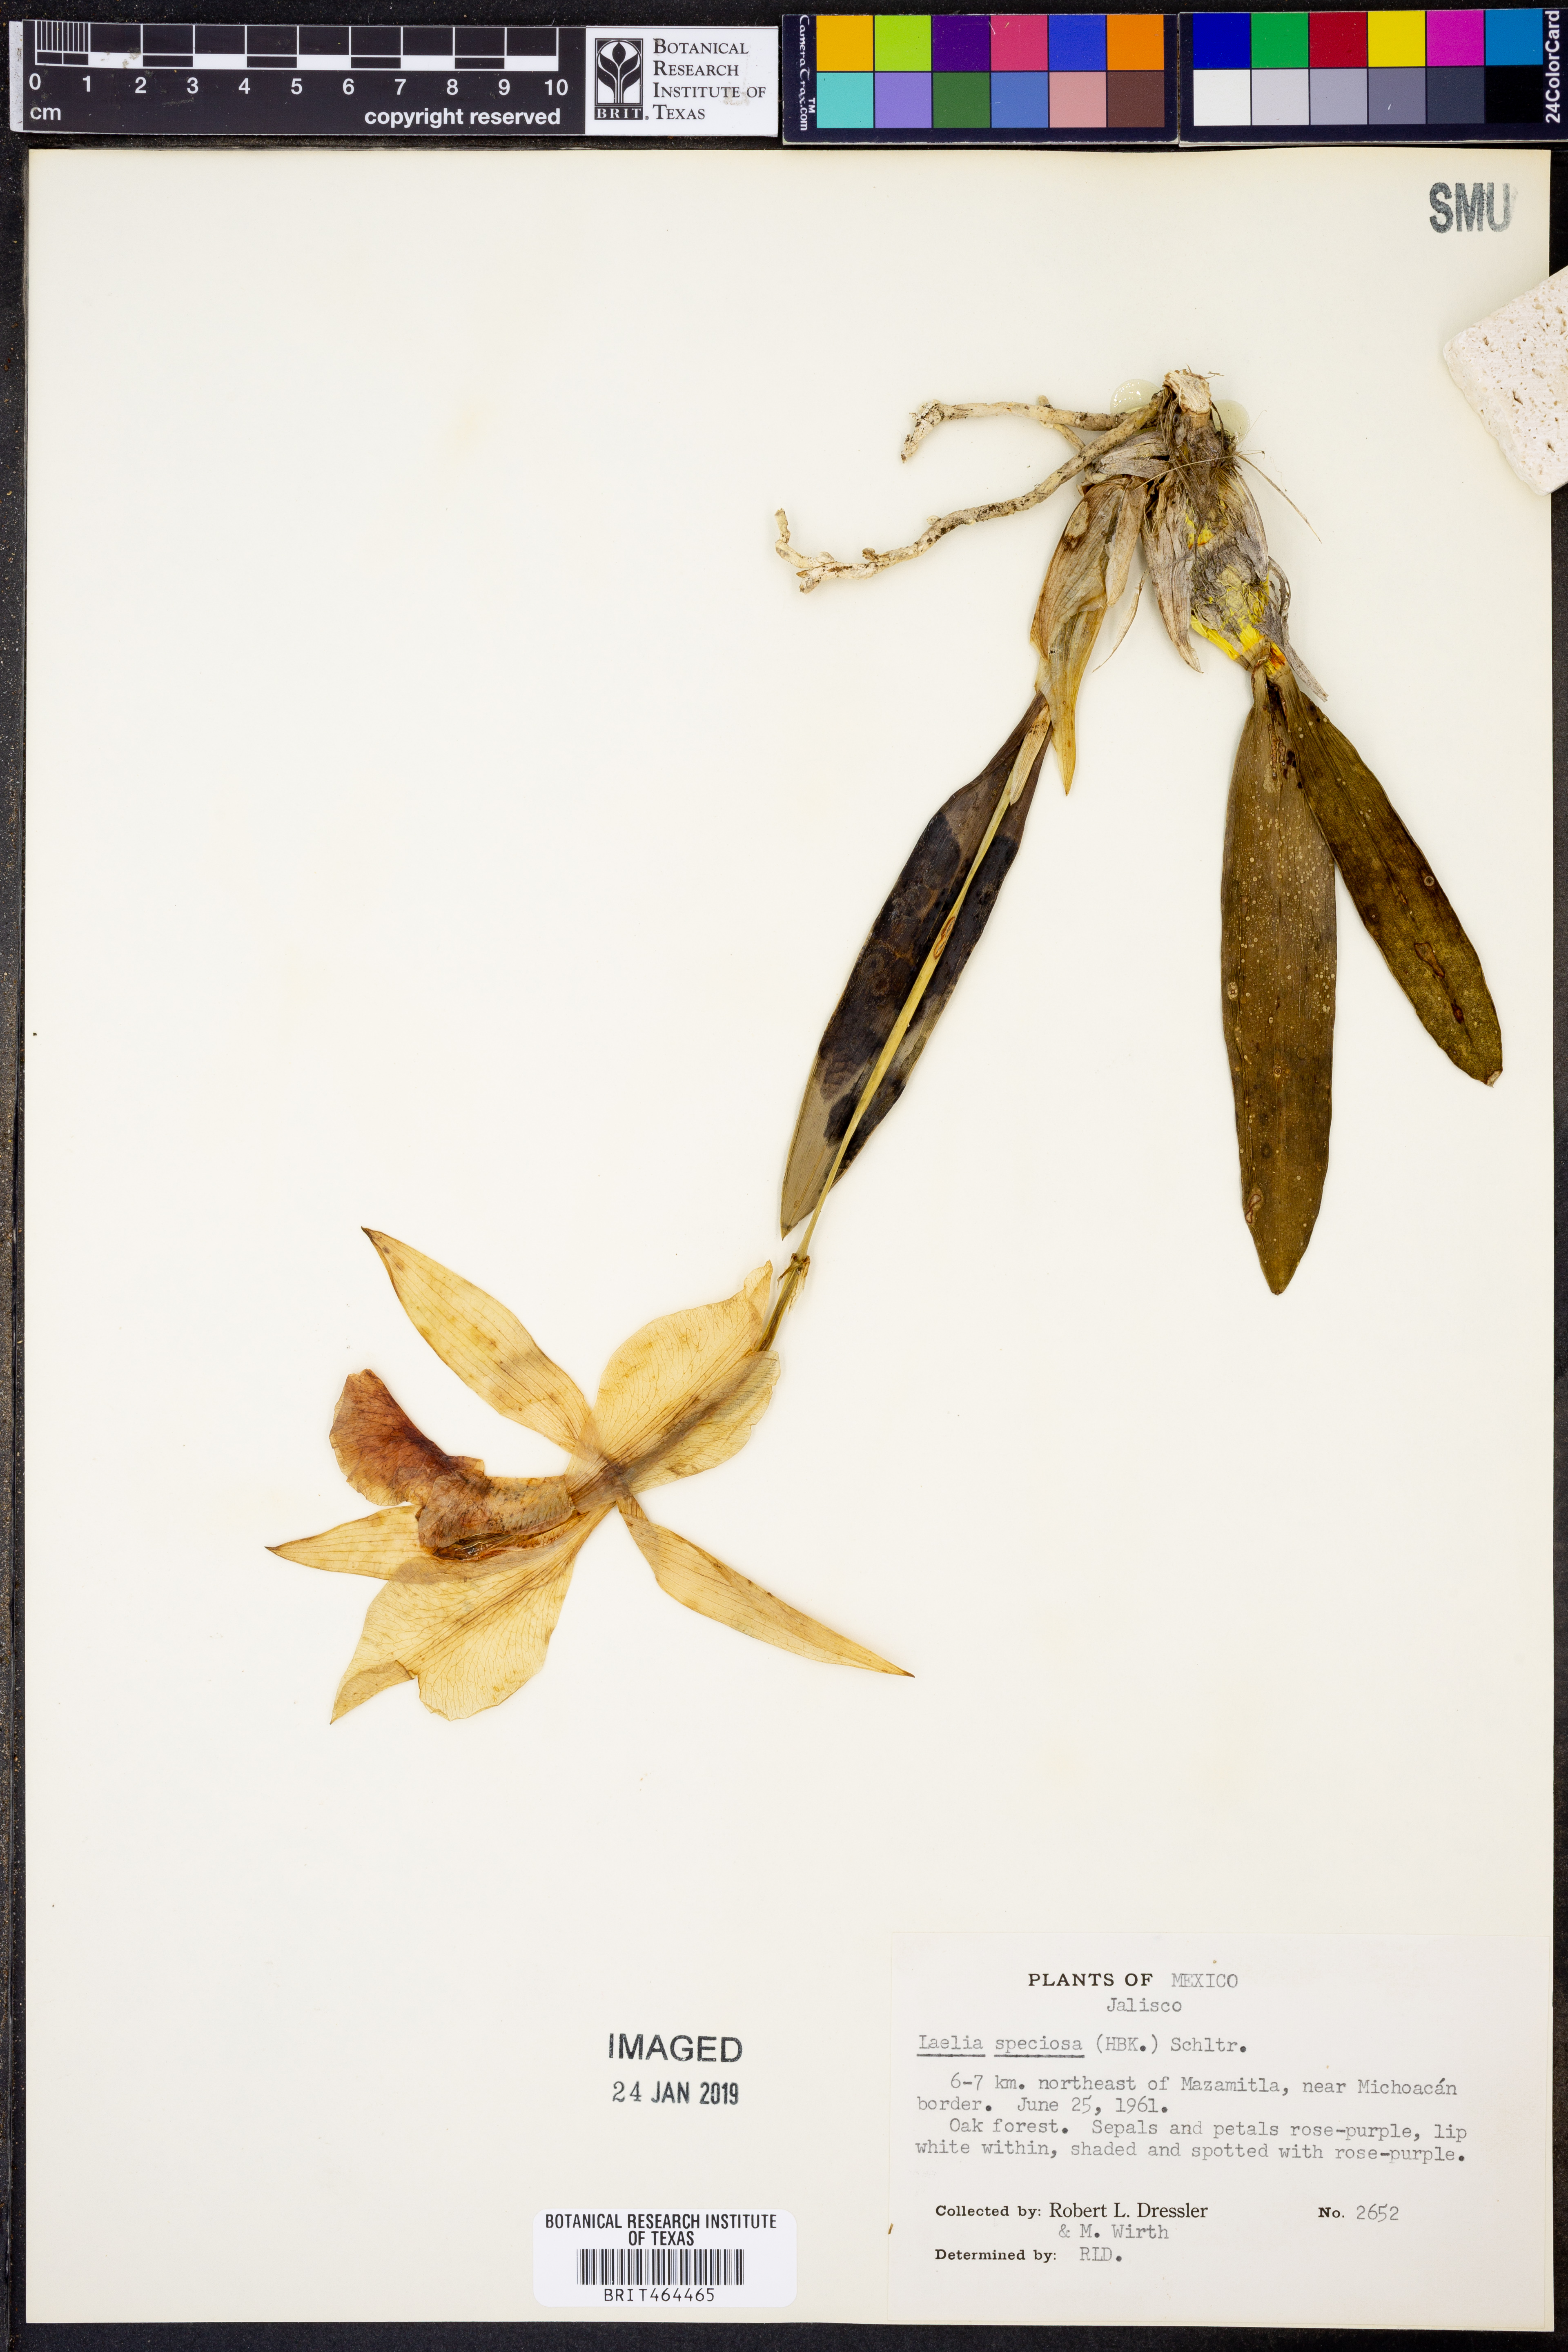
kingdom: Plantae
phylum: Tracheophyta
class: Liliopsida
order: Asparagales
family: Orchidaceae
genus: Laelia
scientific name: Laelia speciosa
